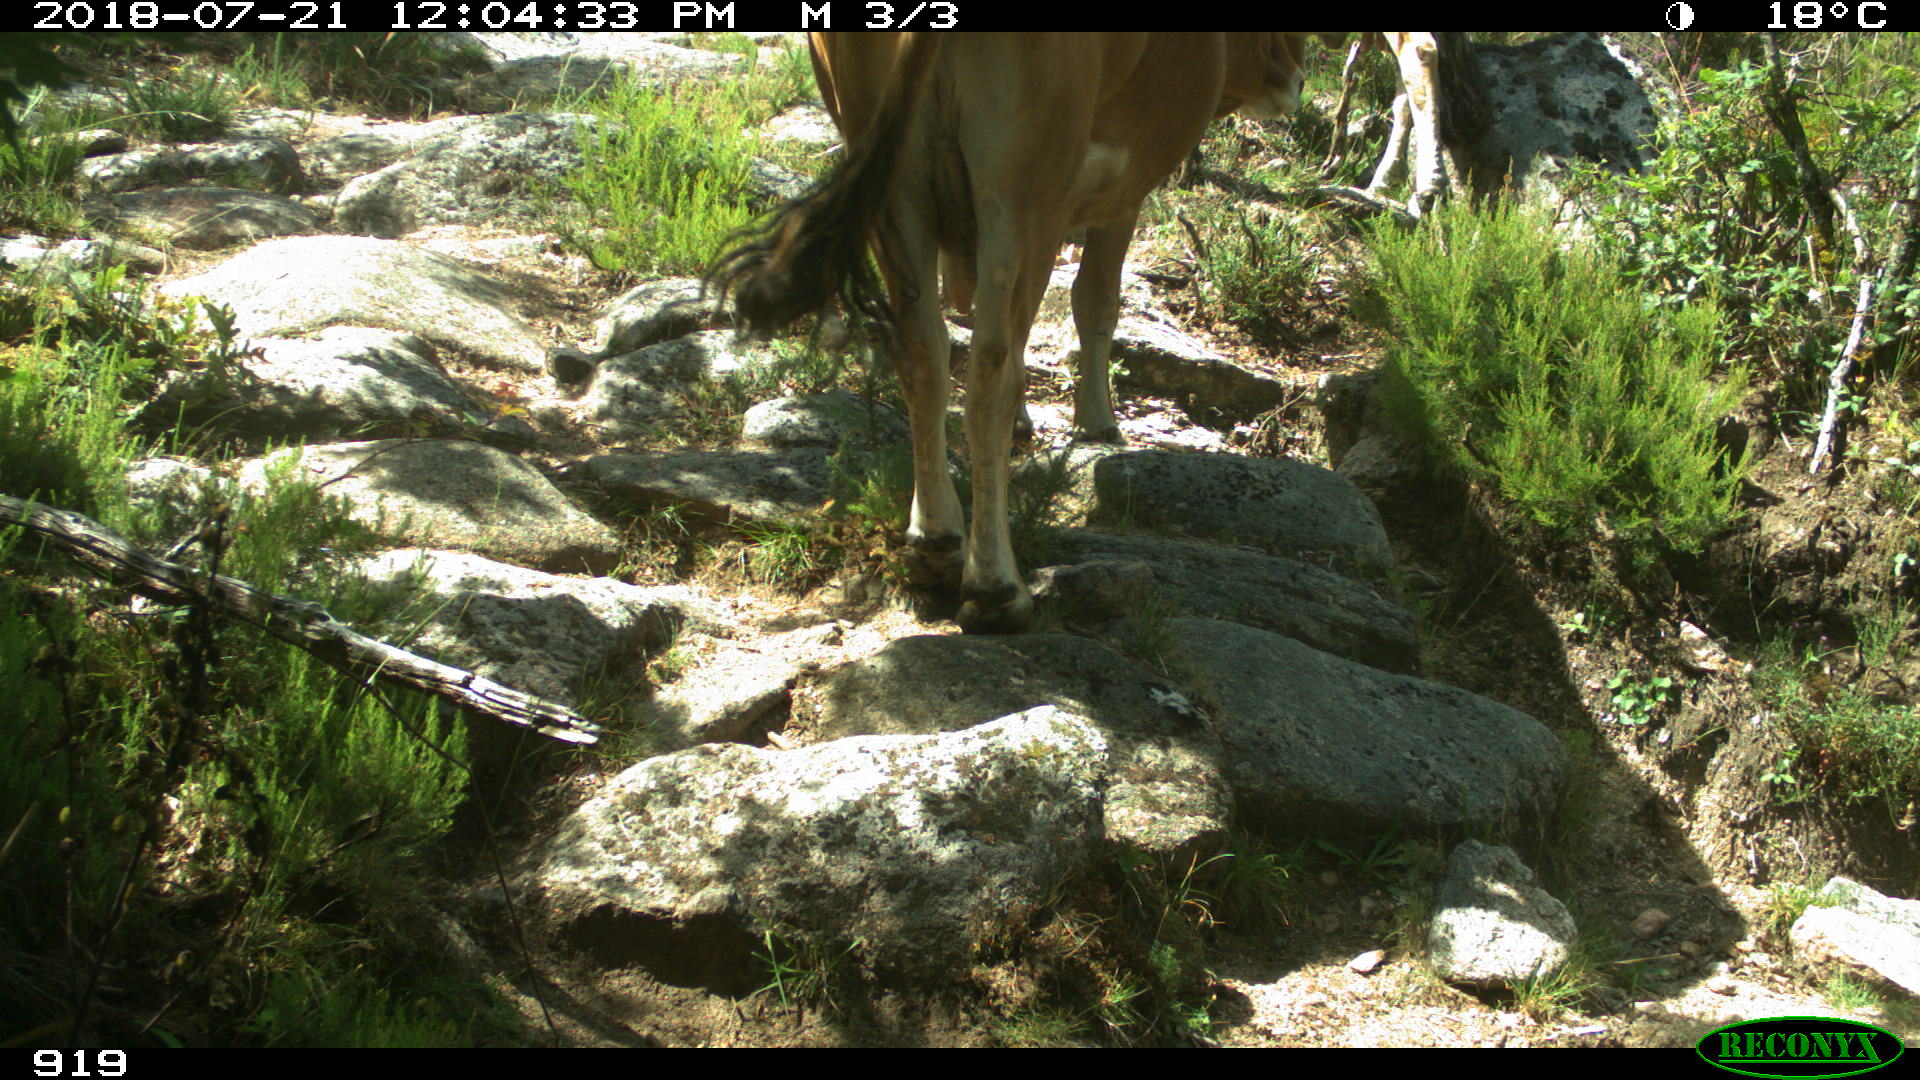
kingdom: Animalia
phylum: Chordata
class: Mammalia
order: Artiodactyla
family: Bovidae
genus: Bos
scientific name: Bos taurus
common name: Domesticated cattle
